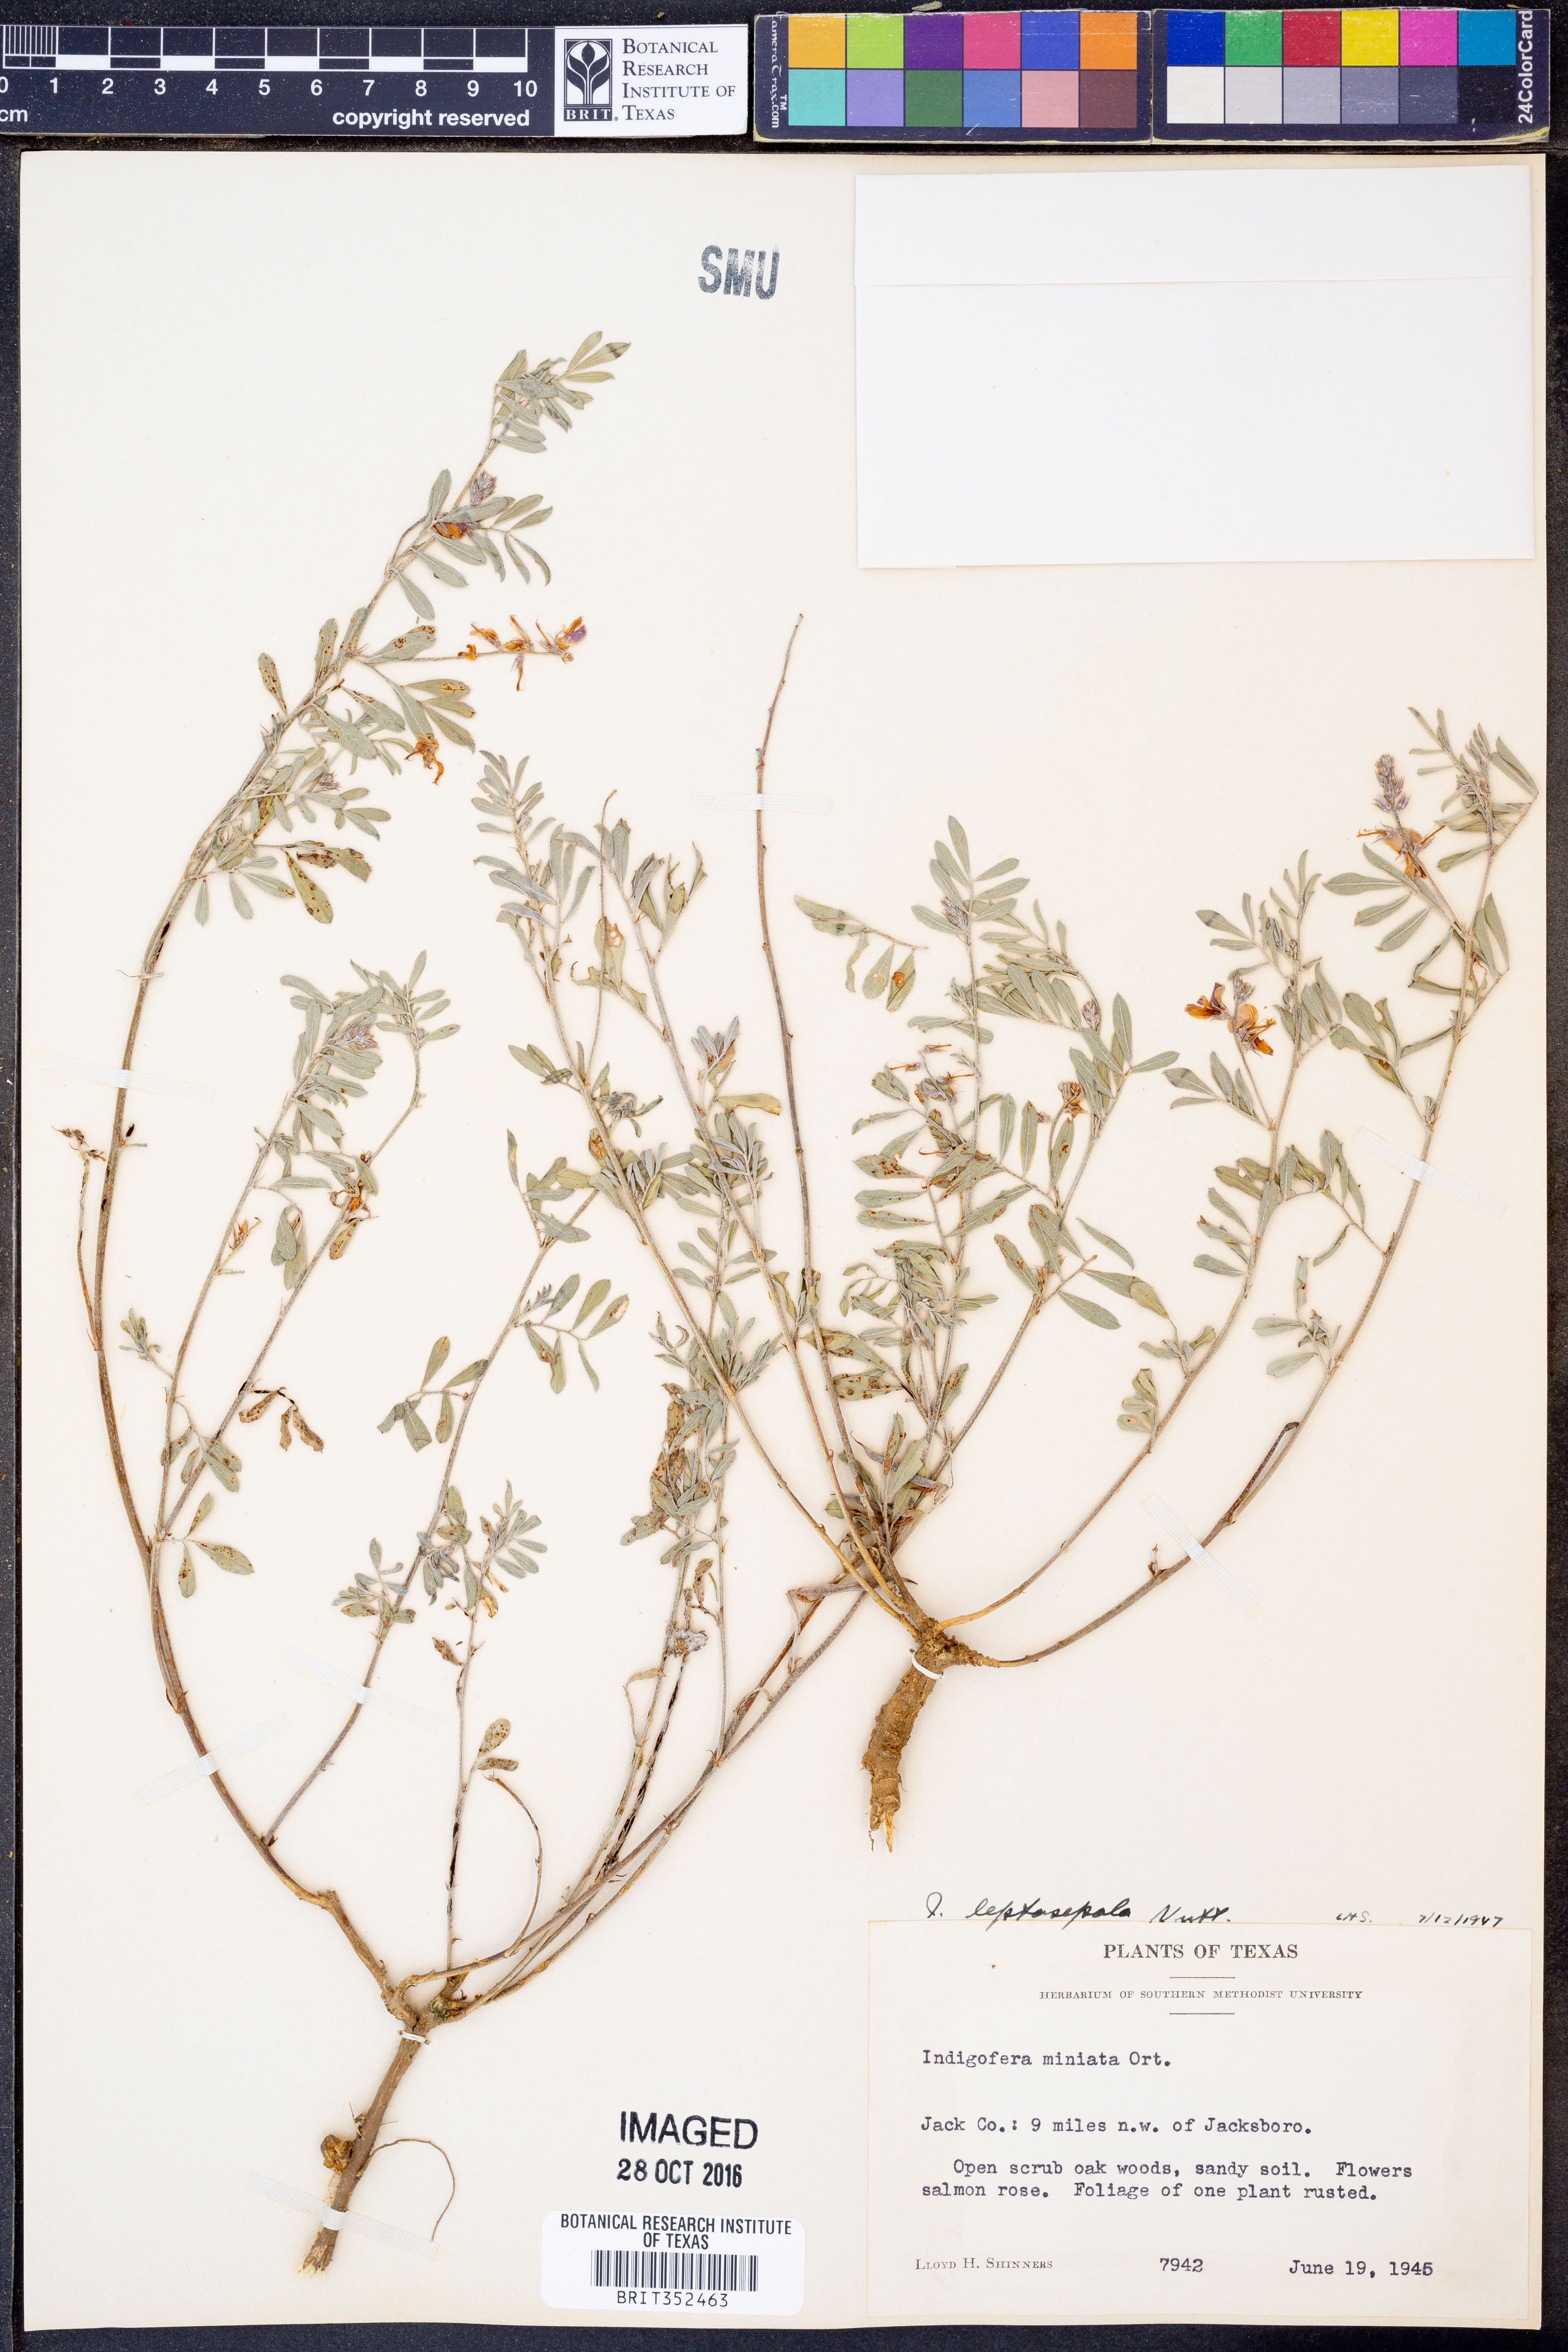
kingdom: Plantae
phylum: Tracheophyta
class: Magnoliopsida
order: Fabales
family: Fabaceae
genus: Indigofera
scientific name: Indigofera miniata
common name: Coast indigo
